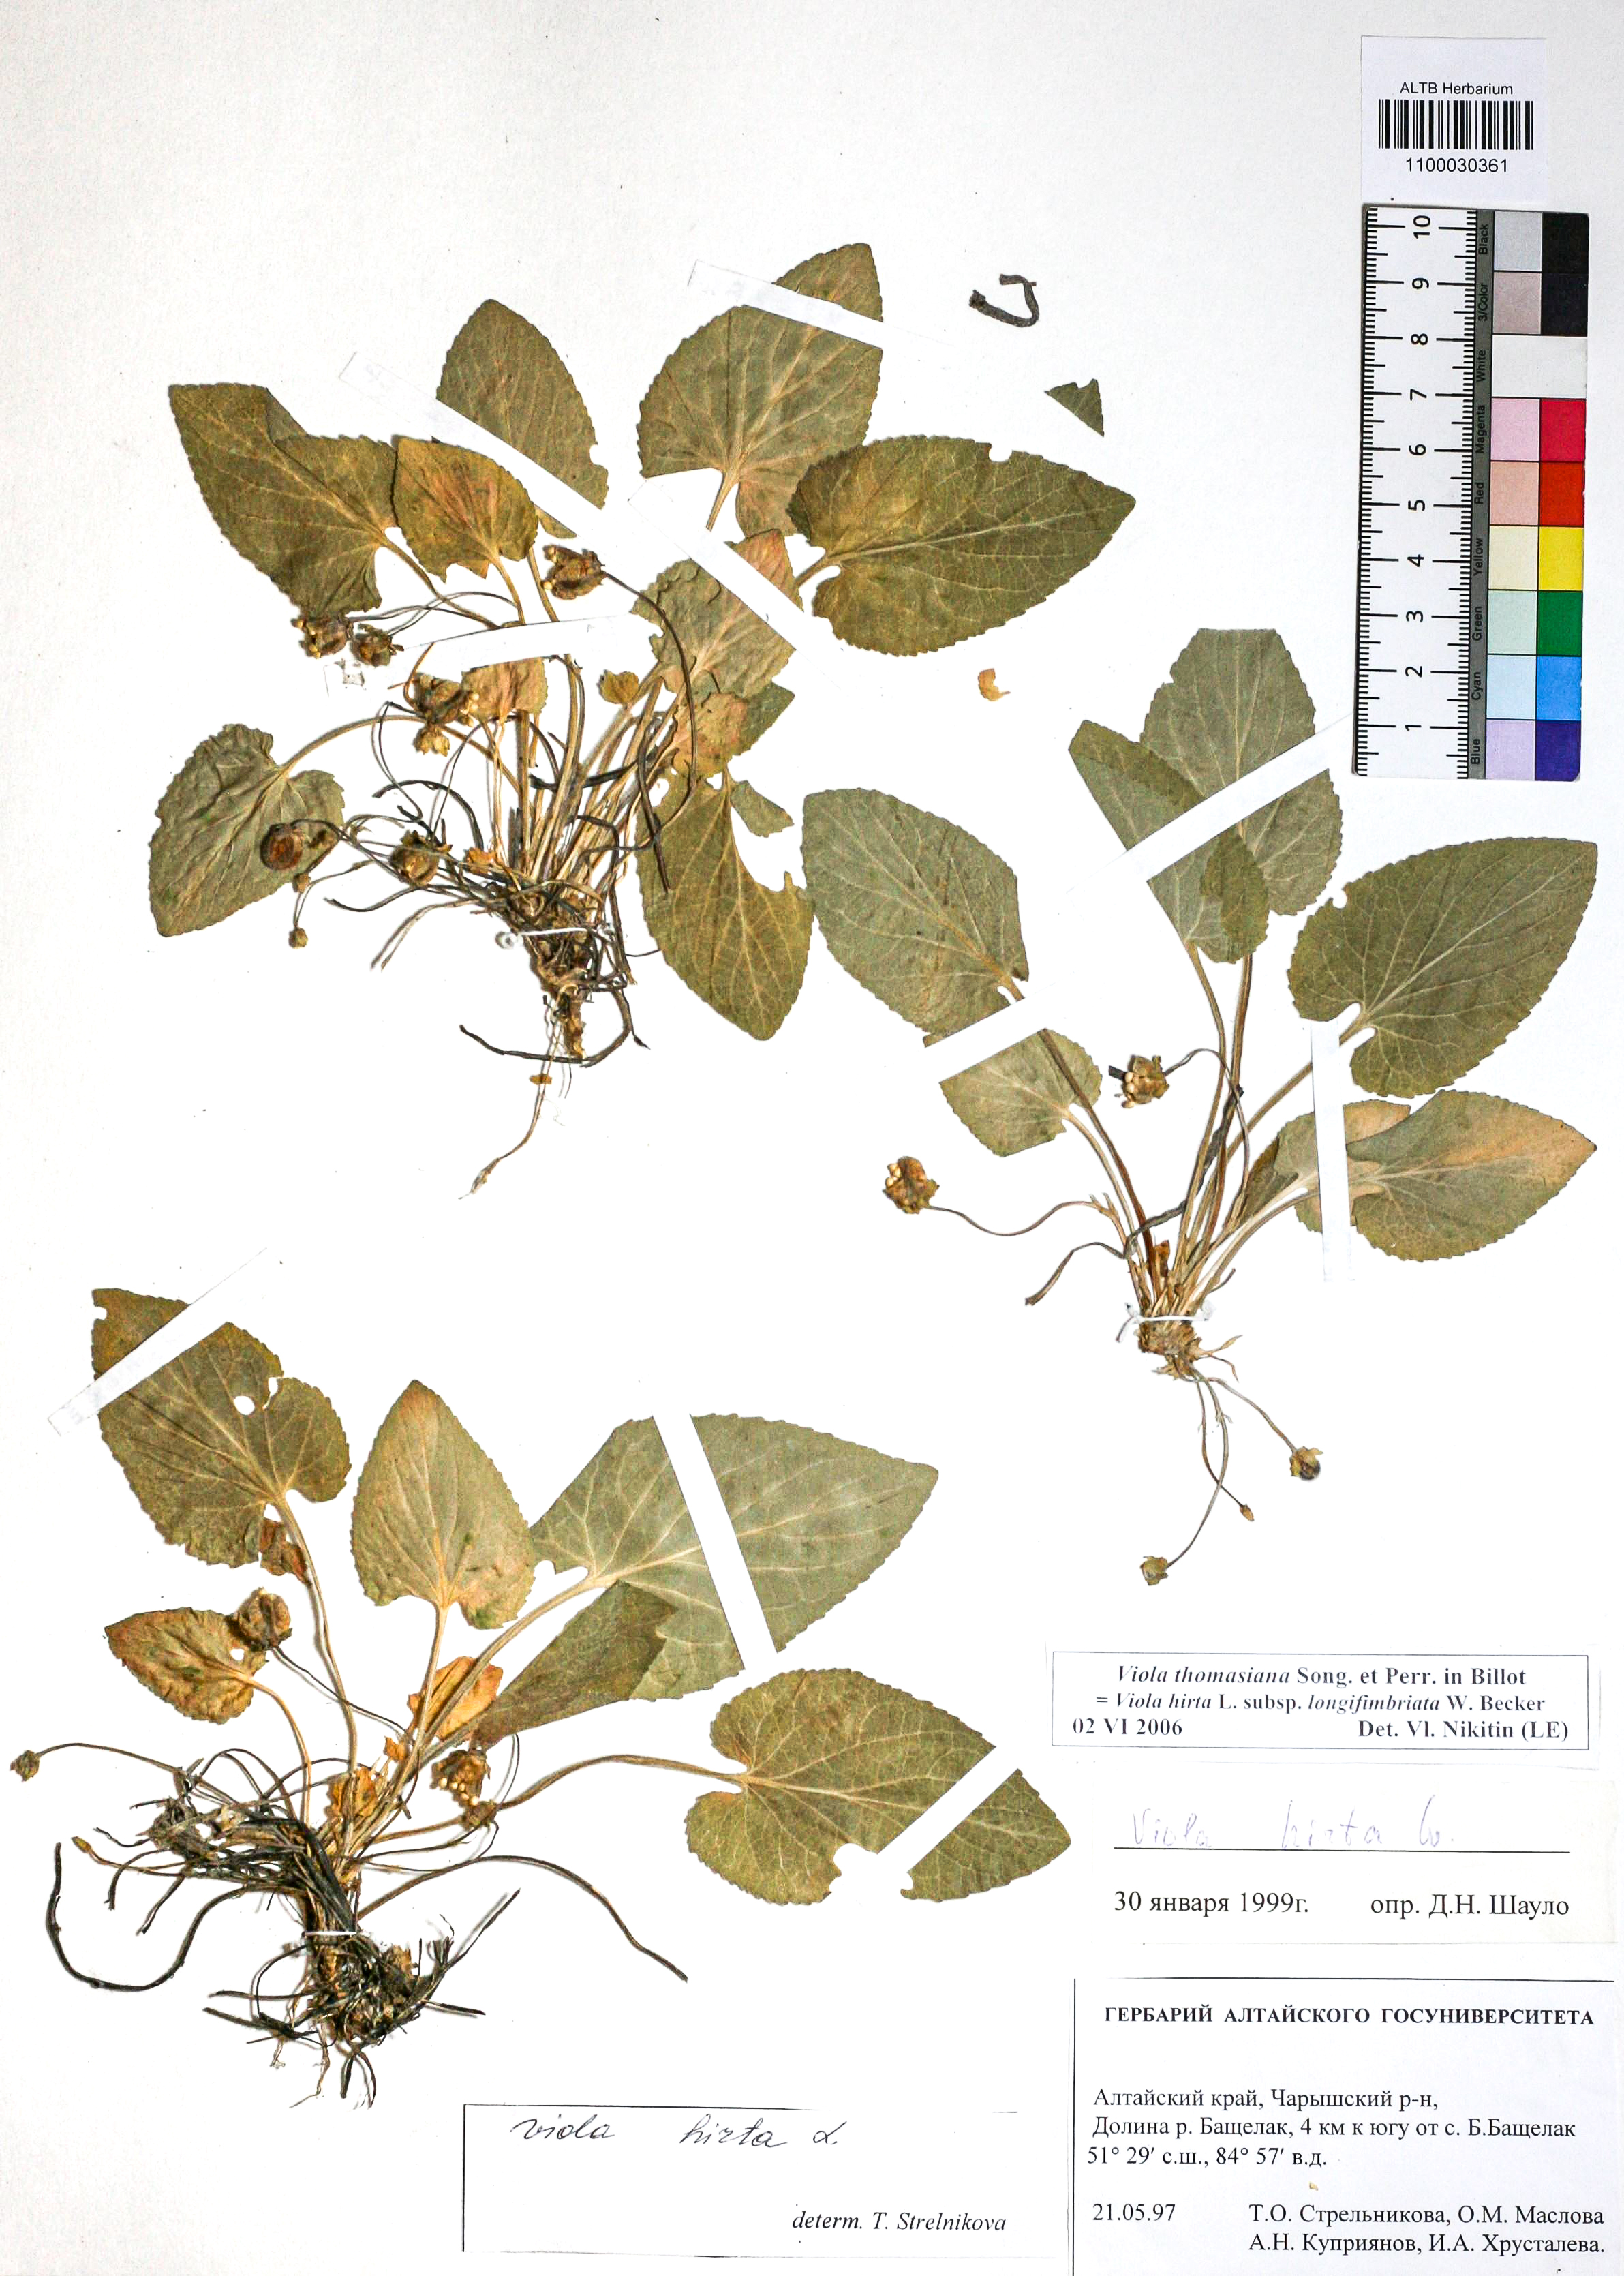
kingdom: Plantae
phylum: Tracheophyta
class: Magnoliopsida
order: Malpighiales
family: Violaceae
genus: Viola
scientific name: Viola thomasiana
